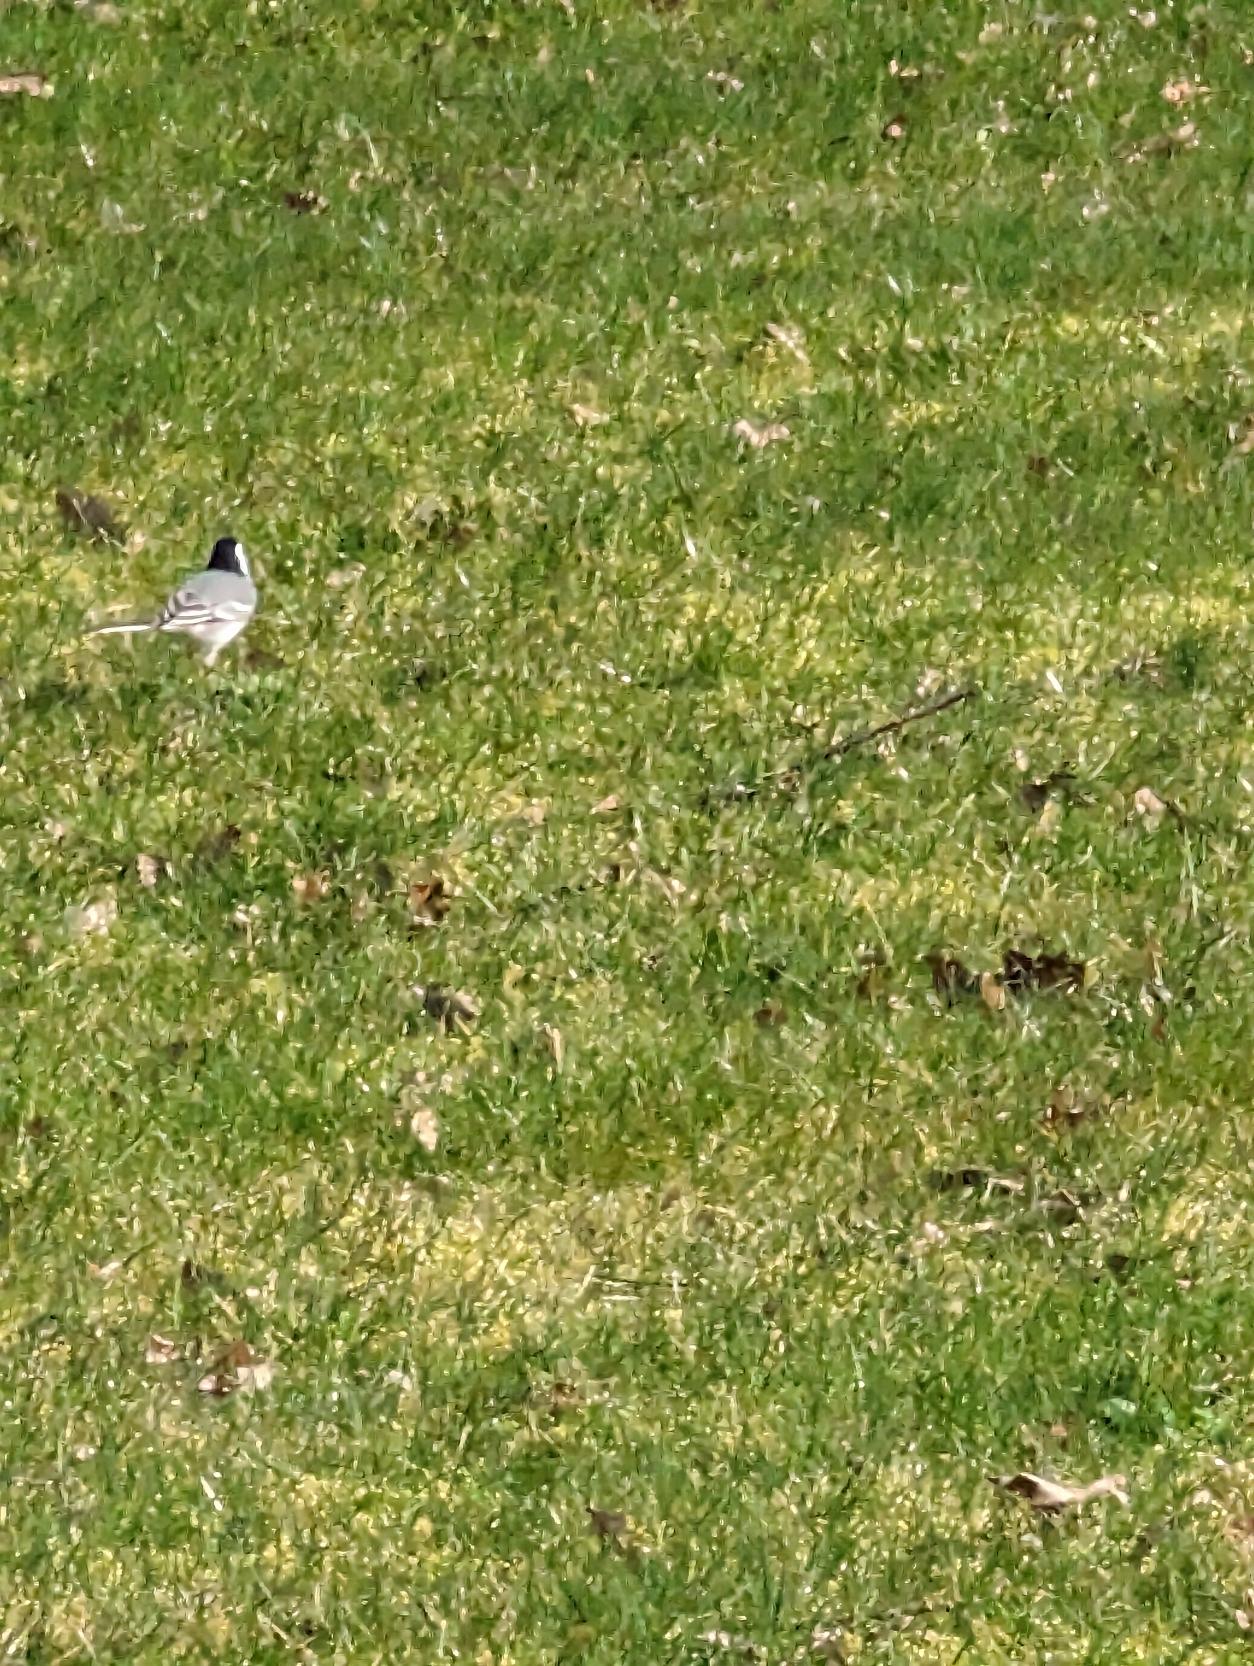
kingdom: Animalia
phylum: Chordata
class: Aves
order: Passeriformes
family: Motacillidae
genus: Motacilla
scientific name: Motacilla alba
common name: Hvid vipstjert
